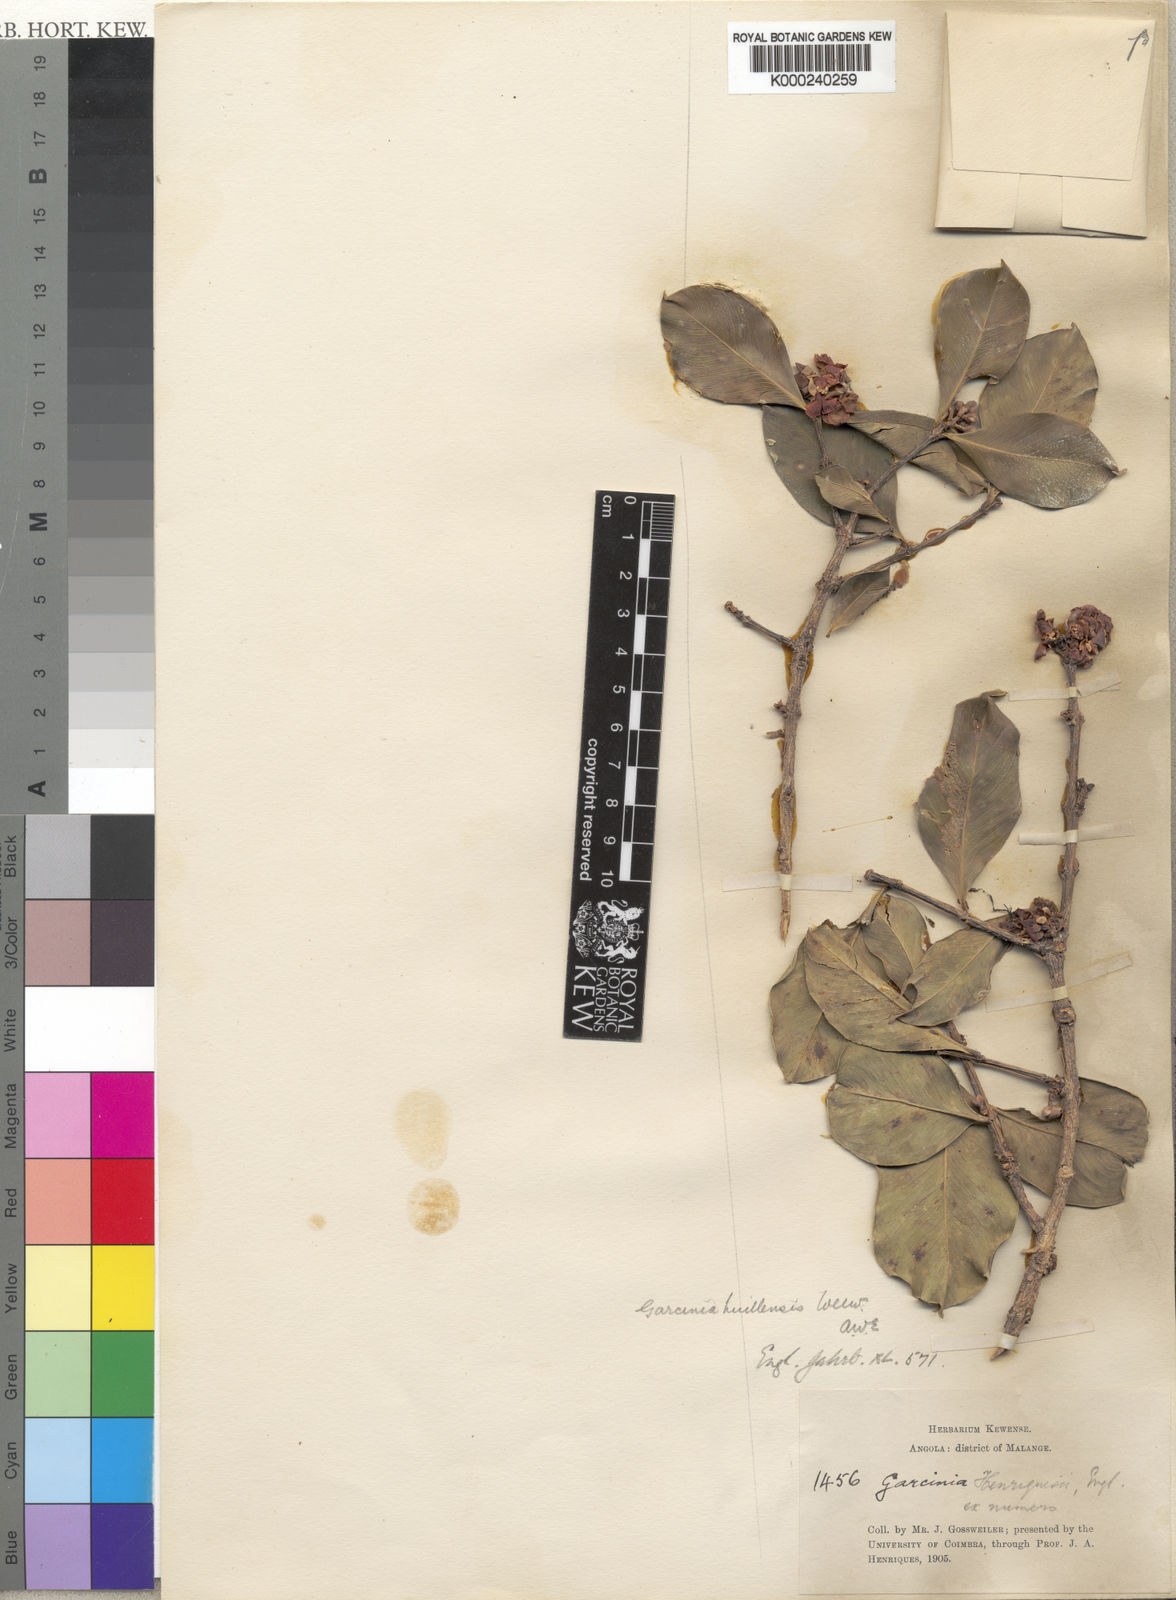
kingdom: Plantae
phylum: Tracheophyta
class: Magnoliopsida
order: Malpighiales
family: Clusiaceae
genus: Garcinia
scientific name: Garcinia huillensis
